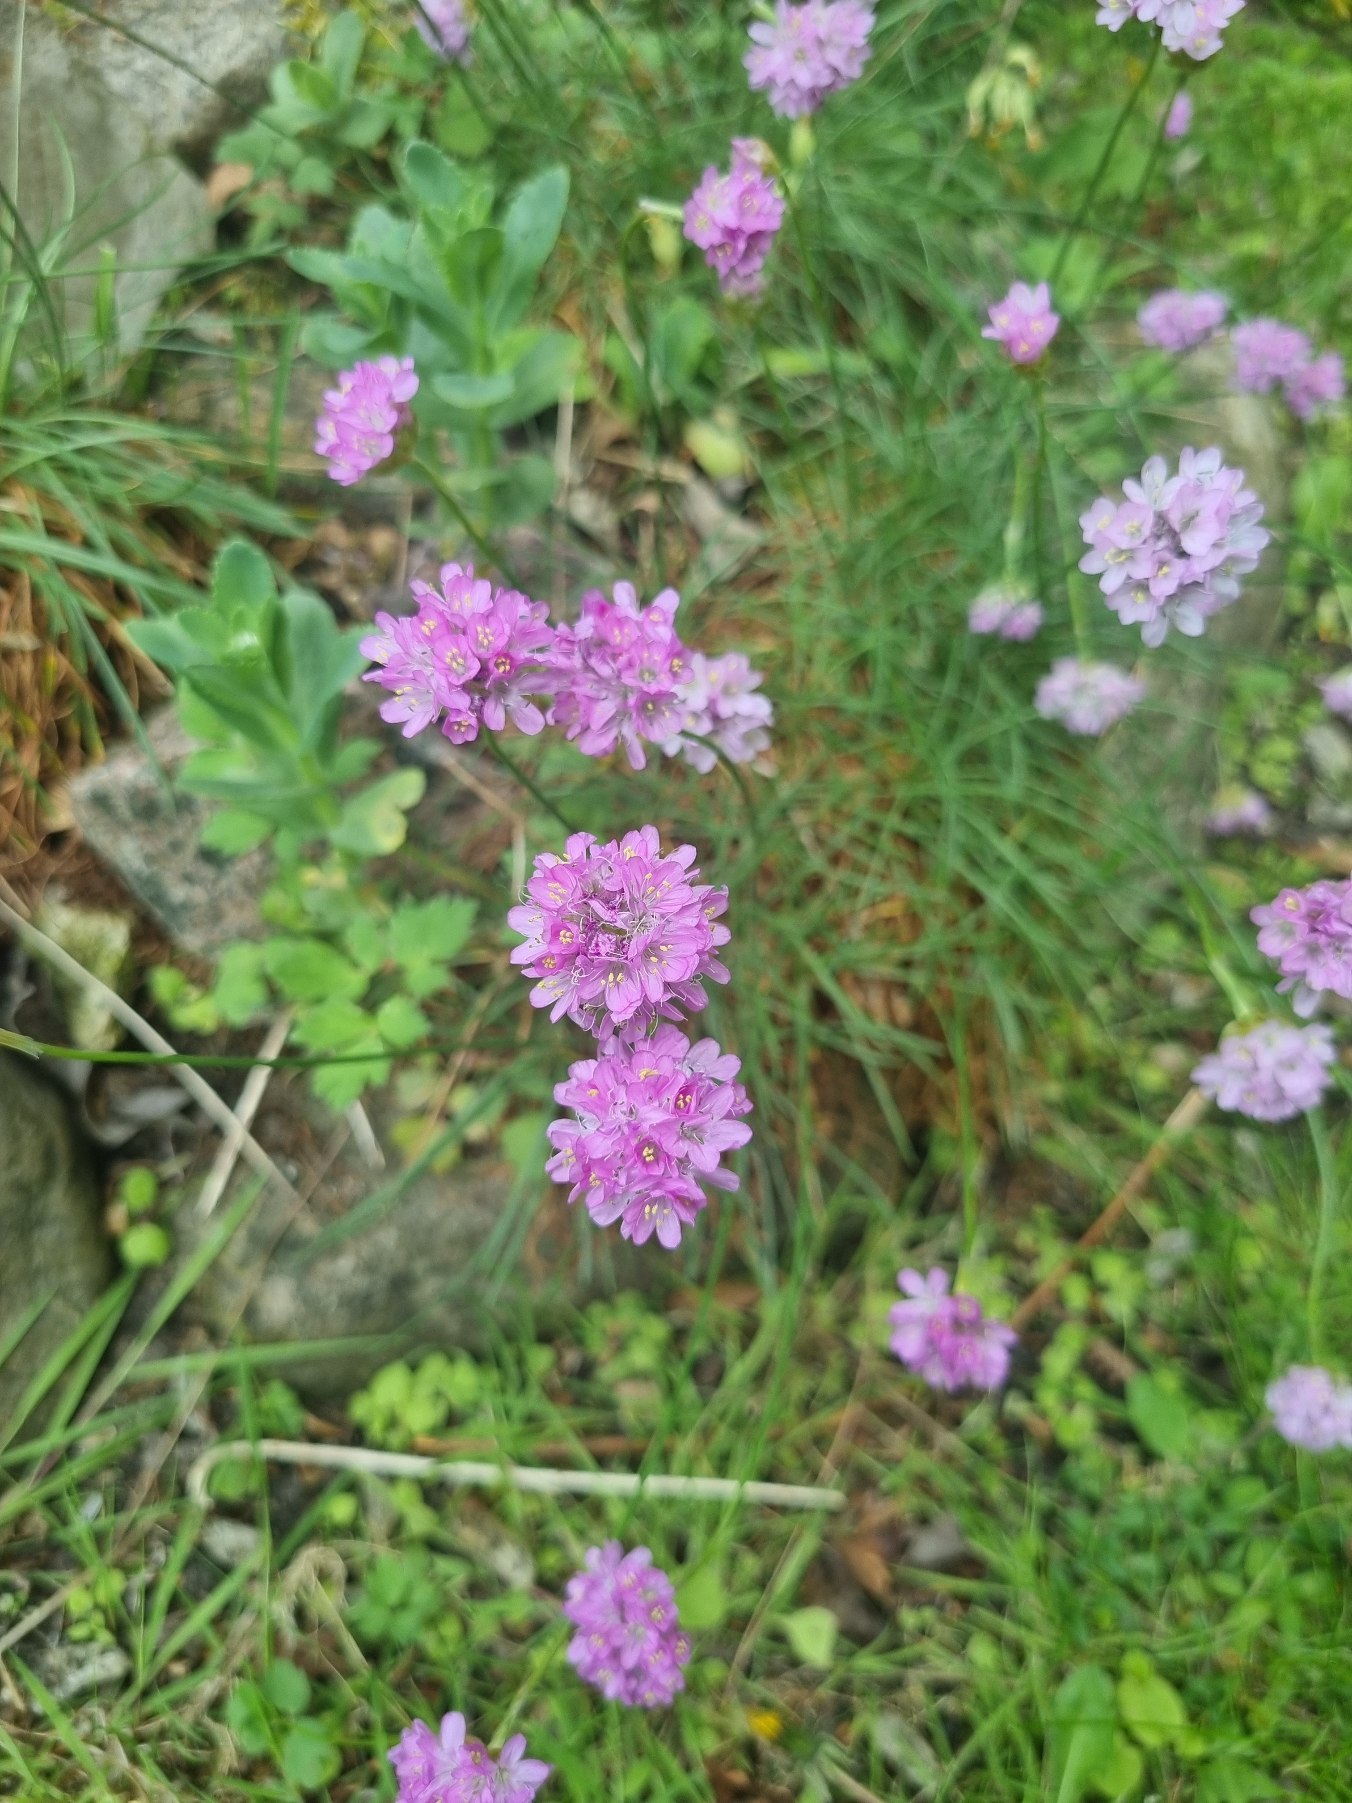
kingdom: Plantae
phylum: Tracheophyta
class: Magnoliopsida
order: Caryophyllales
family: Plumbaginaceae
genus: Armeria
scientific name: Armeria maritima
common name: Engelskgræs
